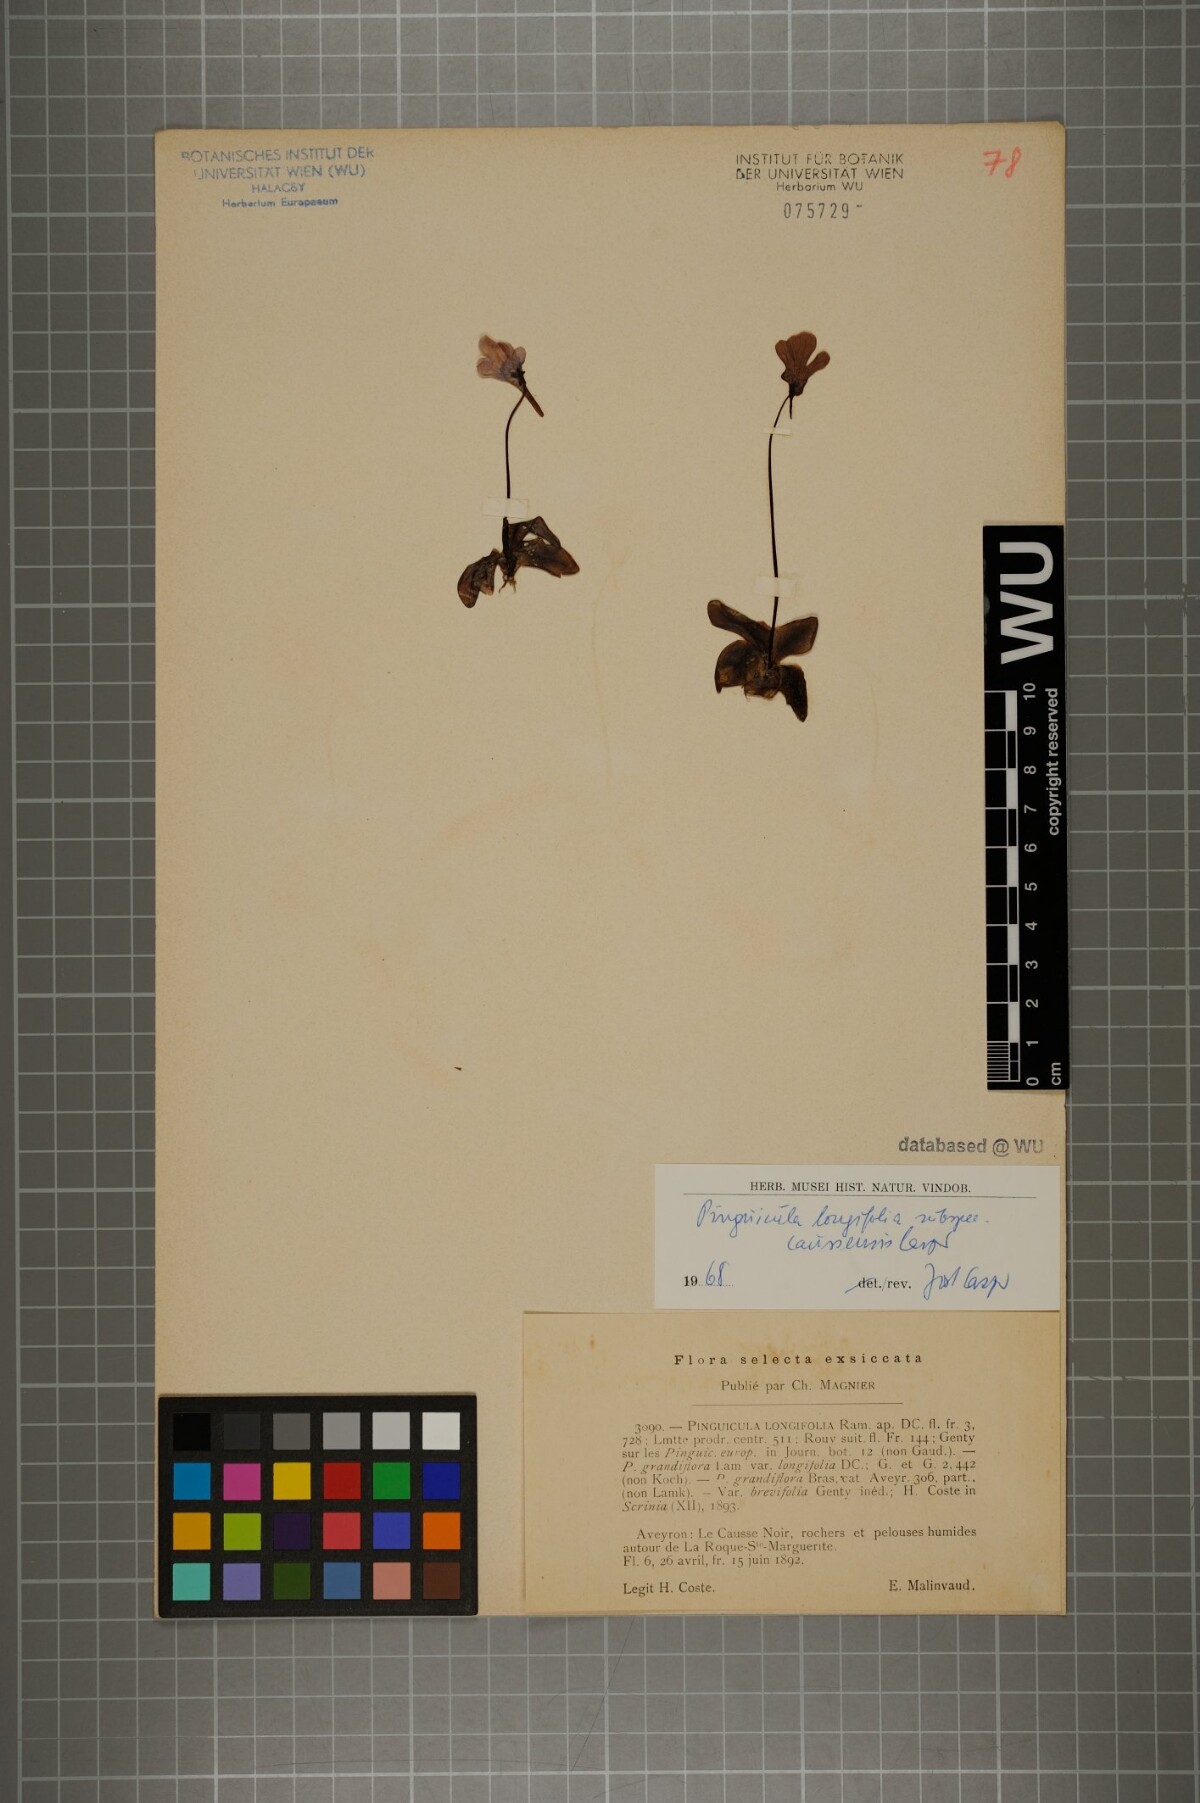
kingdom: Plantae
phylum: Tracheophyta
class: Magnoliopsida
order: Lamiales
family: Lentibulariaceae
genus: Pinguicula
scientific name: Pinguicula caussensis
